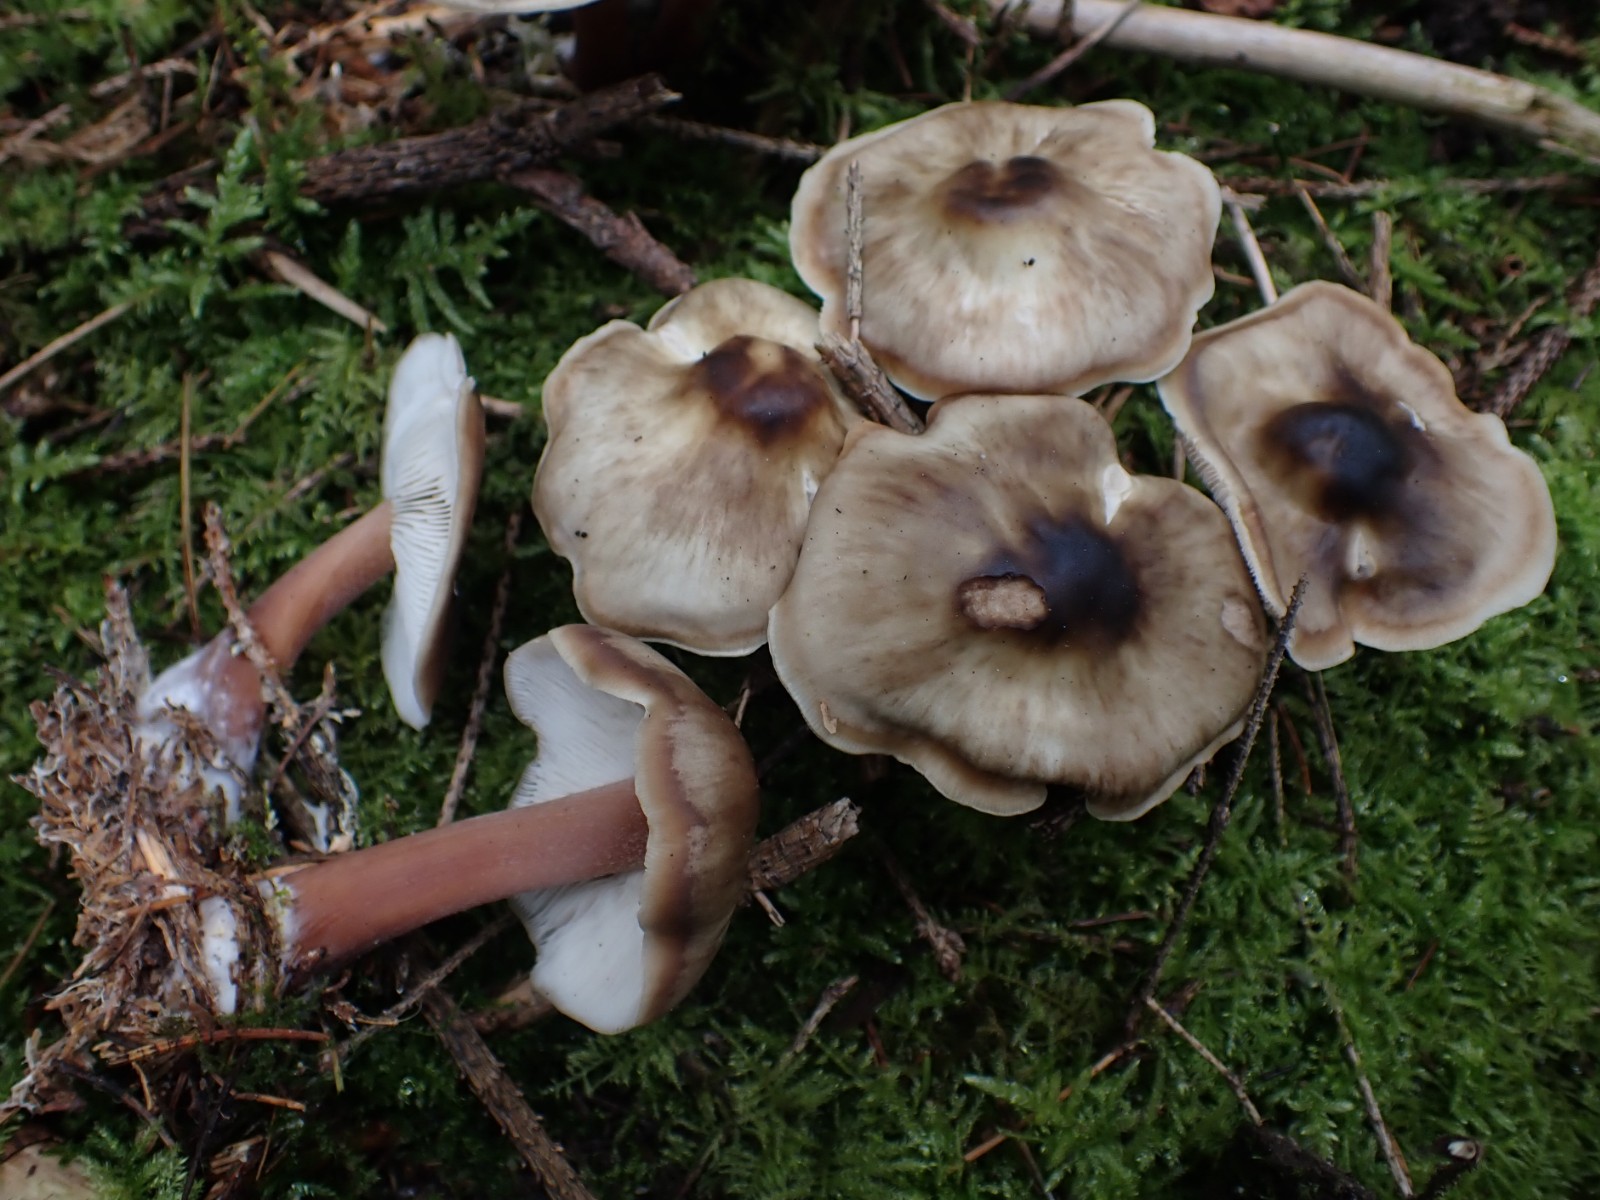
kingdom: Fungi
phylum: Basidiomycota
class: Agaricomycetes
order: Agaricales
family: Omphalotaceae
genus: Rhodocollybia
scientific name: Rhodocollybia asema
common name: horngrå fladhat
